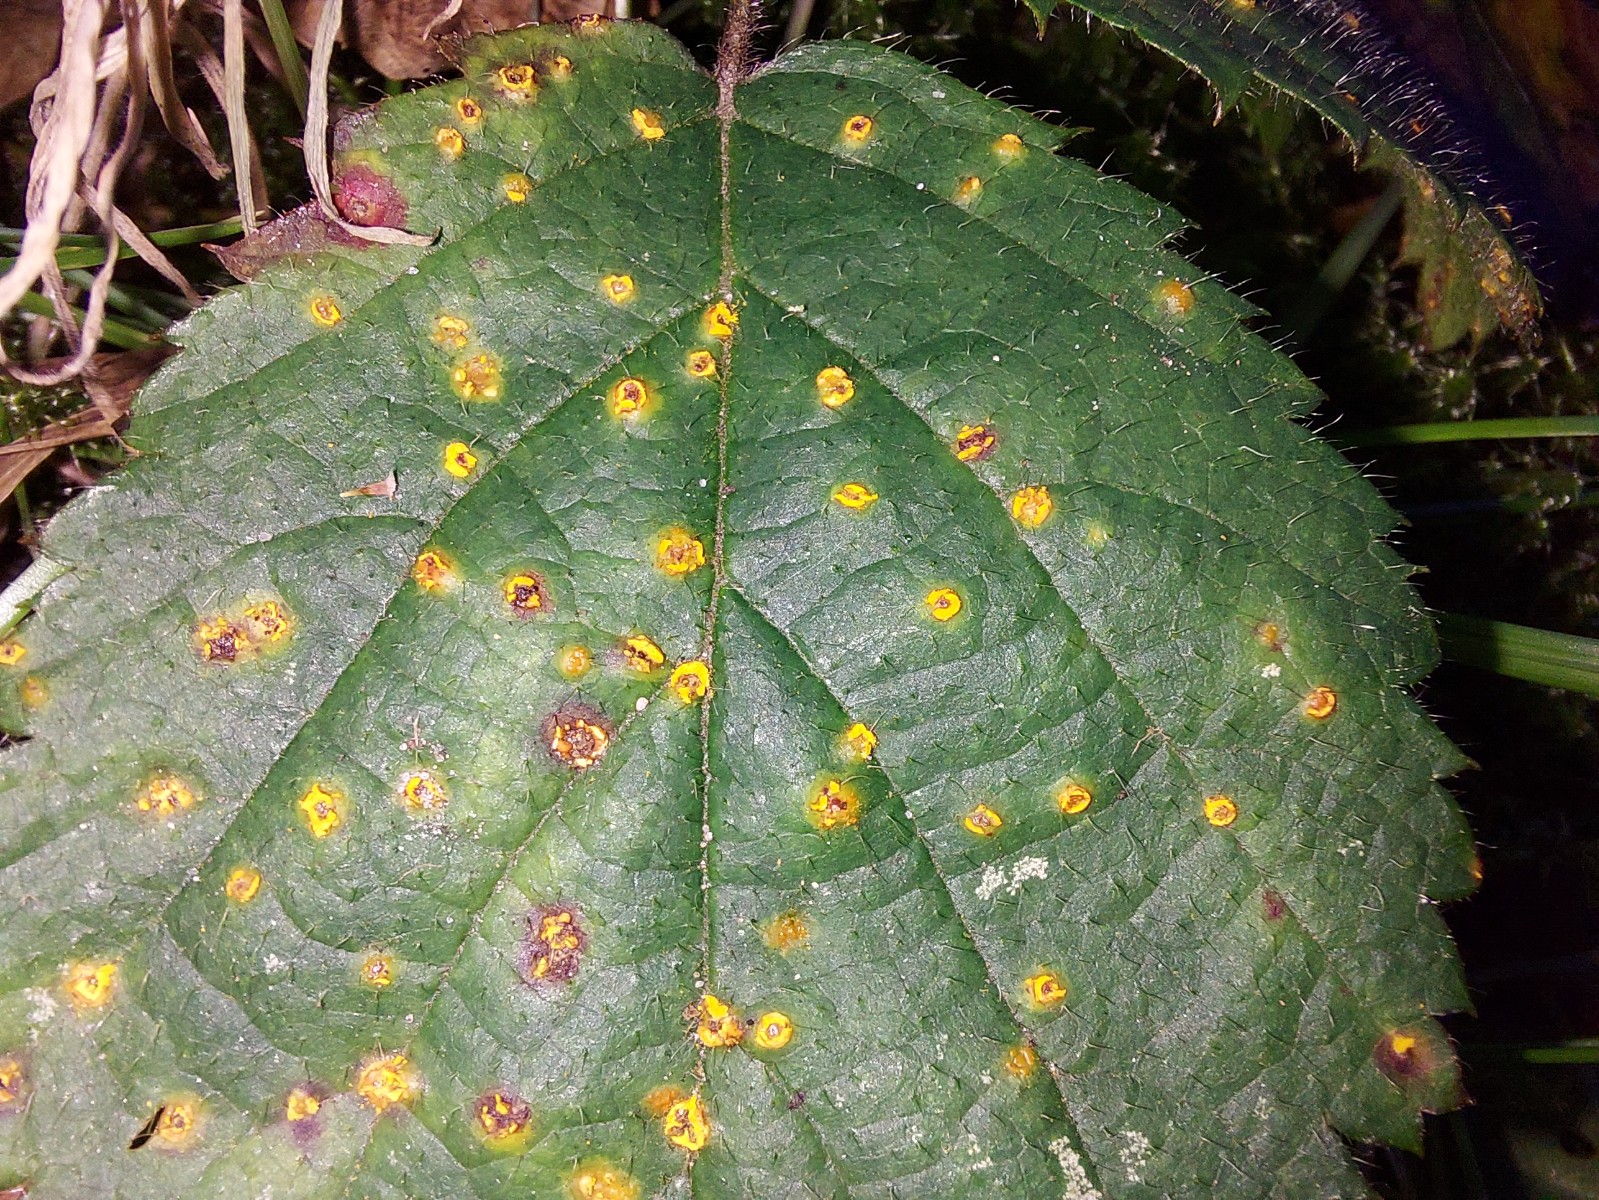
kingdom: Fungi
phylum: Basidiomycota
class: Pucciniomycetes
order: Pucciniales
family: Phragmidiaceae
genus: Phragmidium
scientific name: Phragmidium
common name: flercellerust
